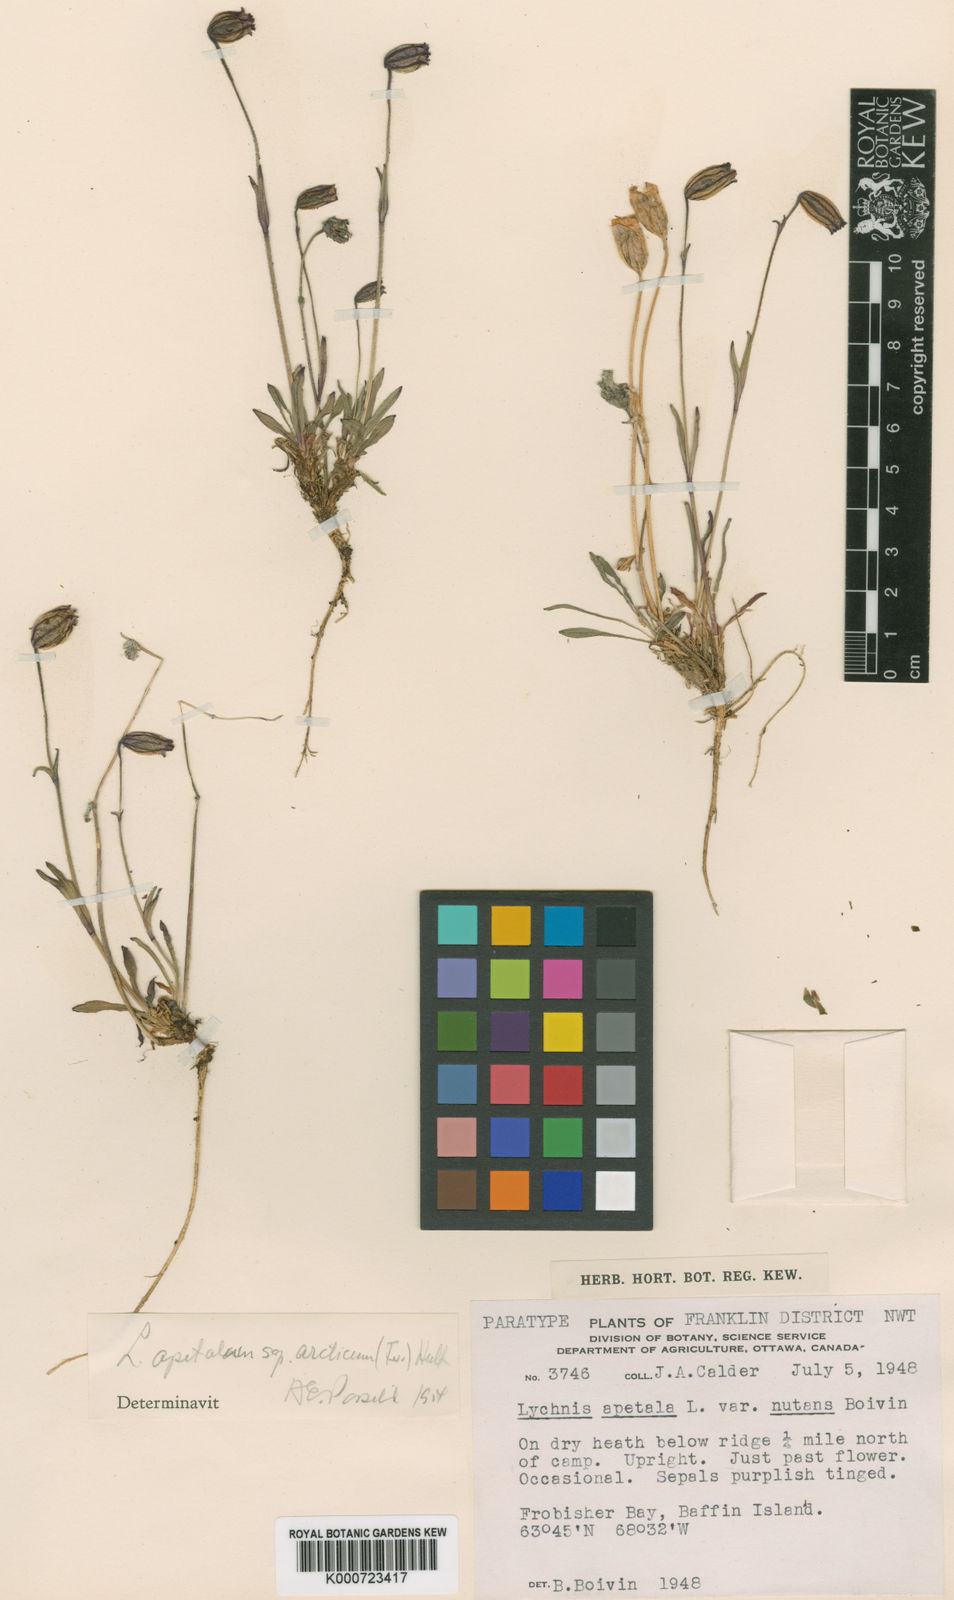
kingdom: Plantae
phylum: Tracheophyta
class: Magnoliopsida
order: Caryophyllales
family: Caryophyllaceae
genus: Silene
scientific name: Silene uralensis
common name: Nodding campion
